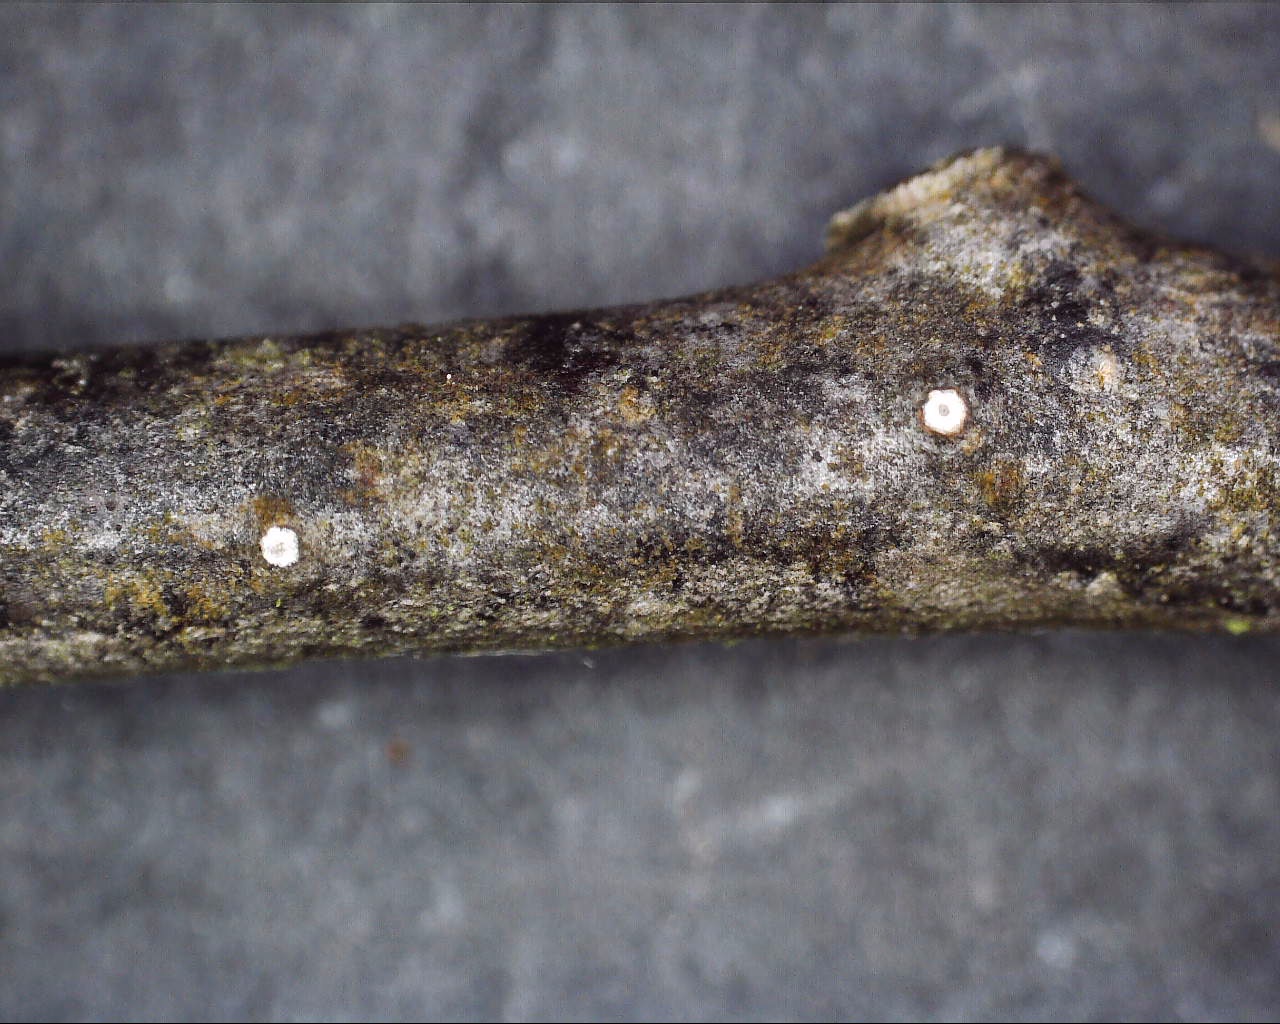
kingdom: Fungi
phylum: Ascomycota
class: Sordariomycetes
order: Diaporthales
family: Valsaceae
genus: Cytospora
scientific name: Cytospora nivea
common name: hvidskivet kulknippe
